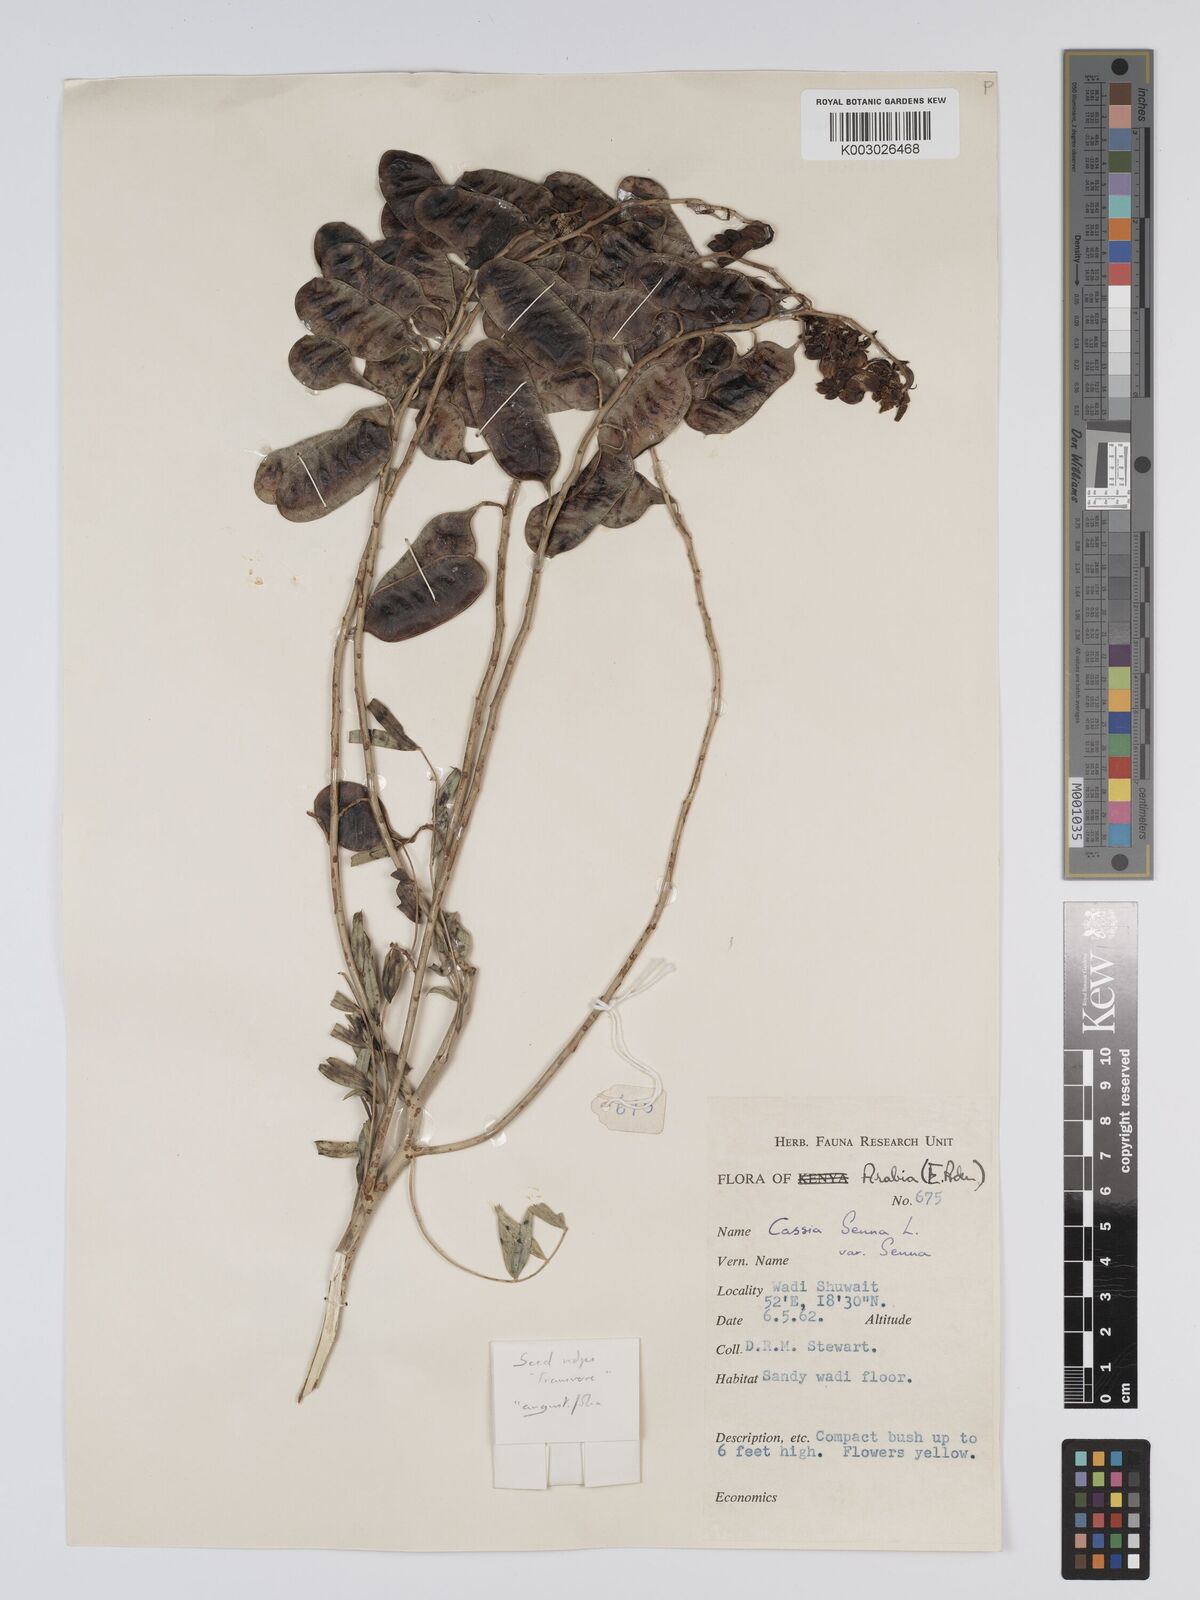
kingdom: Plantae
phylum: Tracheophyta
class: Magnoliopsida
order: Fabales
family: Fabaceae
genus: Senna
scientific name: Senna alexandrina
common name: True senna
